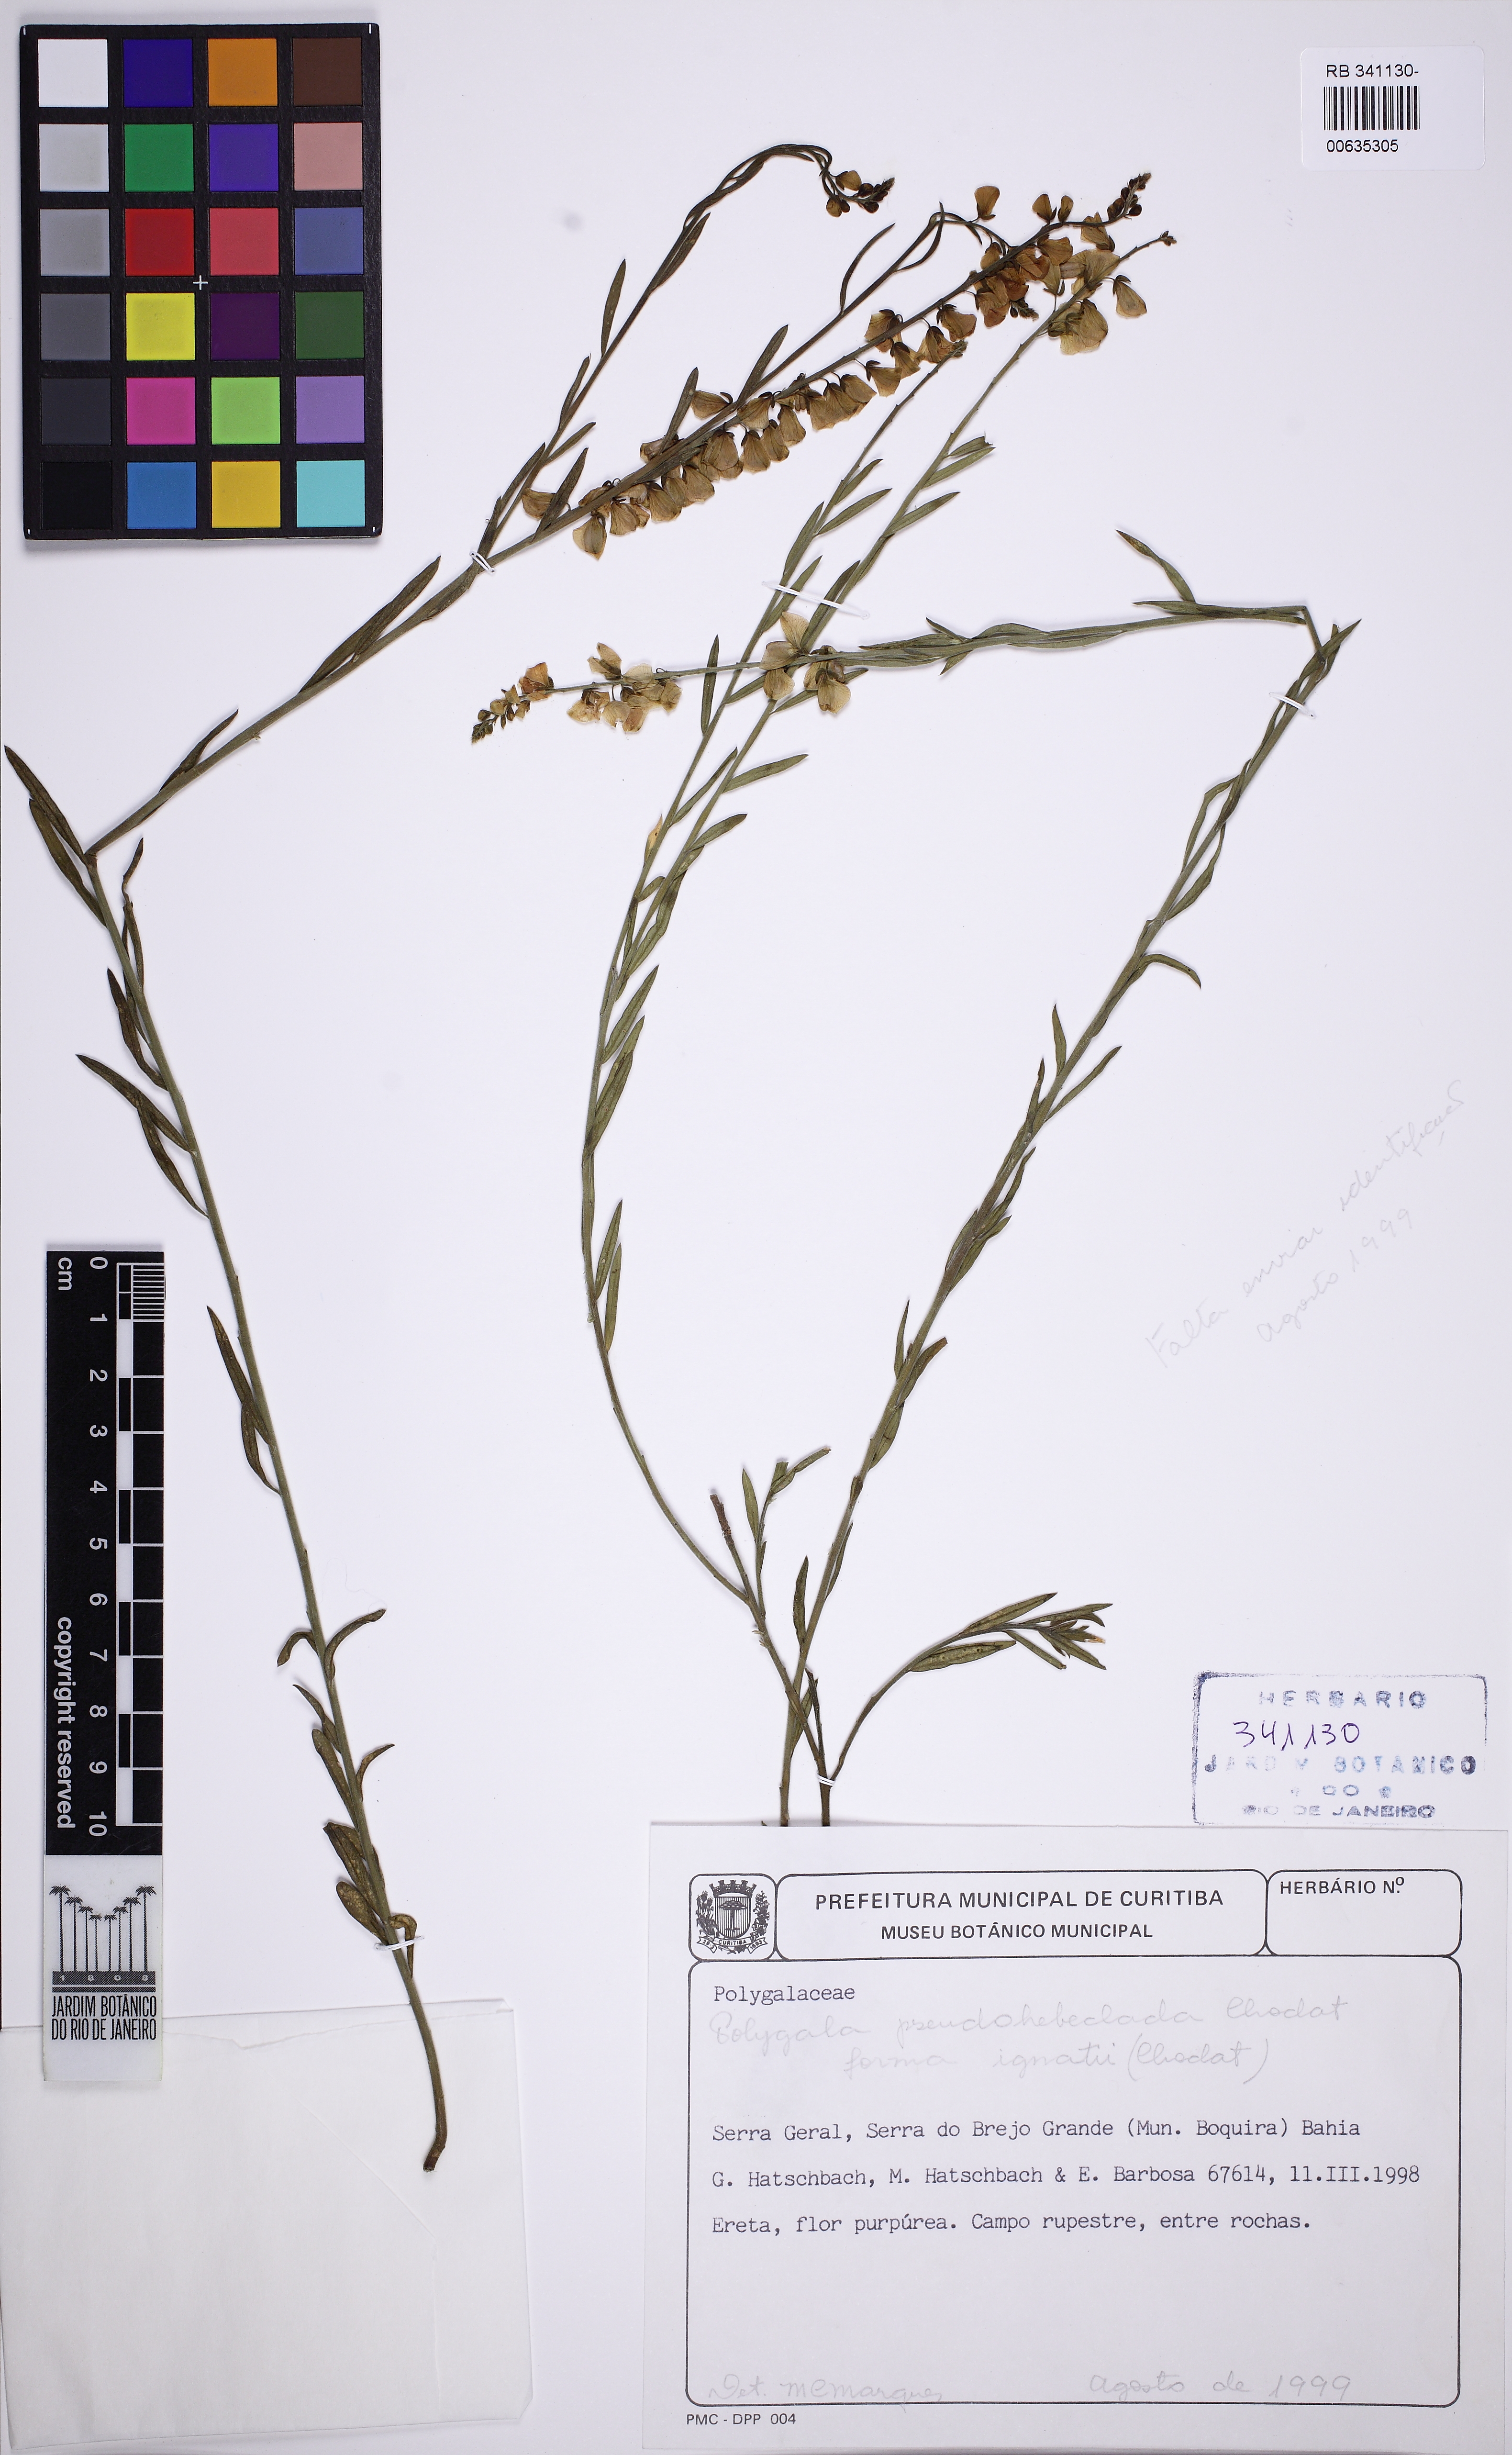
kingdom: Plantae
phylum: Tracheophyta
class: Magnoliopsida
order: Fabales
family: Polygalaceae
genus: Asemeia
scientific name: Asemeia pseudohebeclada
